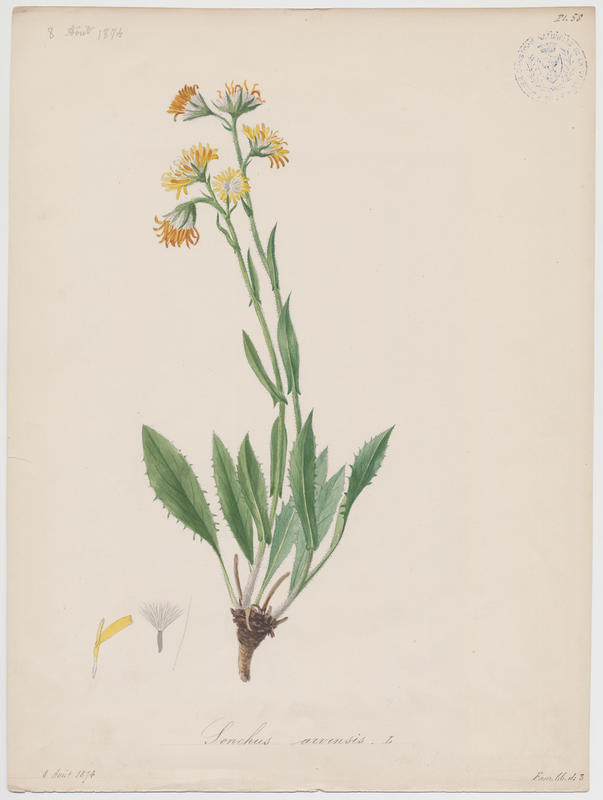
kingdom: Plantae
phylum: Tracheophyta
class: Magnoliopsida
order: Asterales
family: Asteraceae
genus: Sonchus
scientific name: Sonchus arvensis
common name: Perennial sow-thistle
